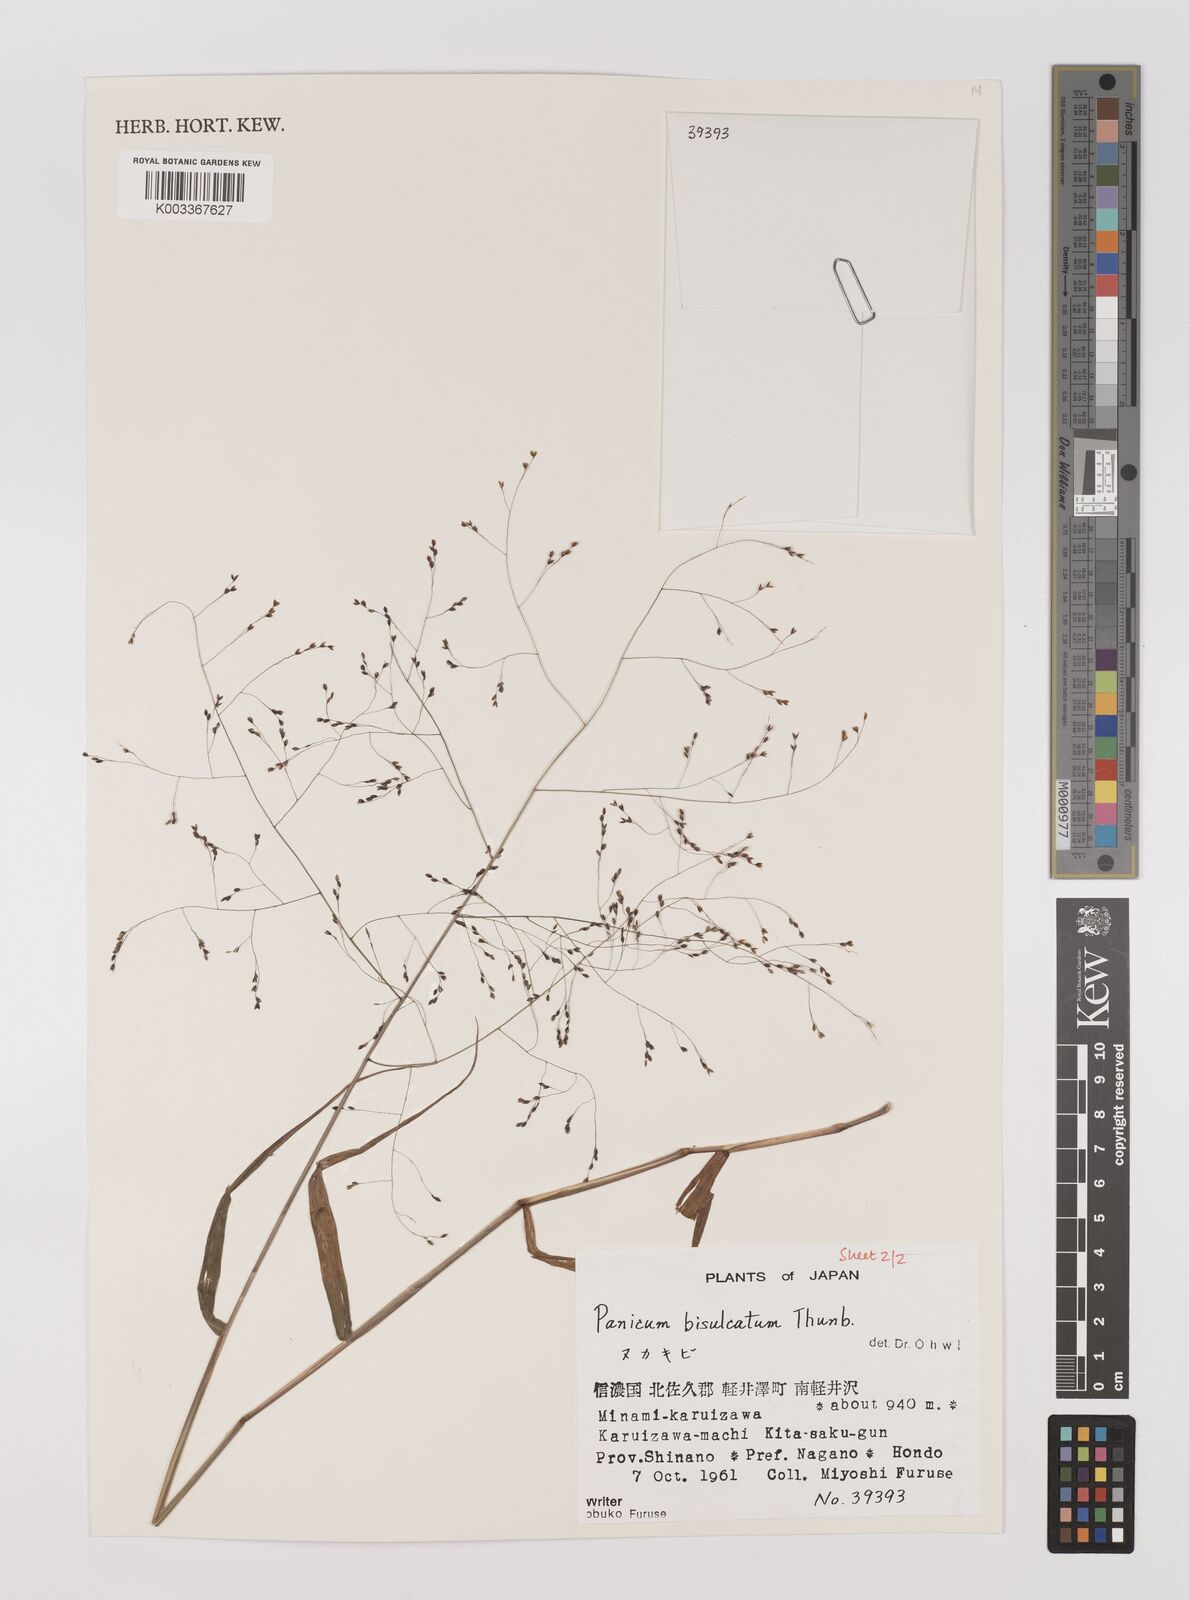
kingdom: Plantae
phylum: Tracheophyta
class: Liliopsida
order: Poales
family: Poaceae
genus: Panicum
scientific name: Panicum bisulcatum
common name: Japanese panicgrass
